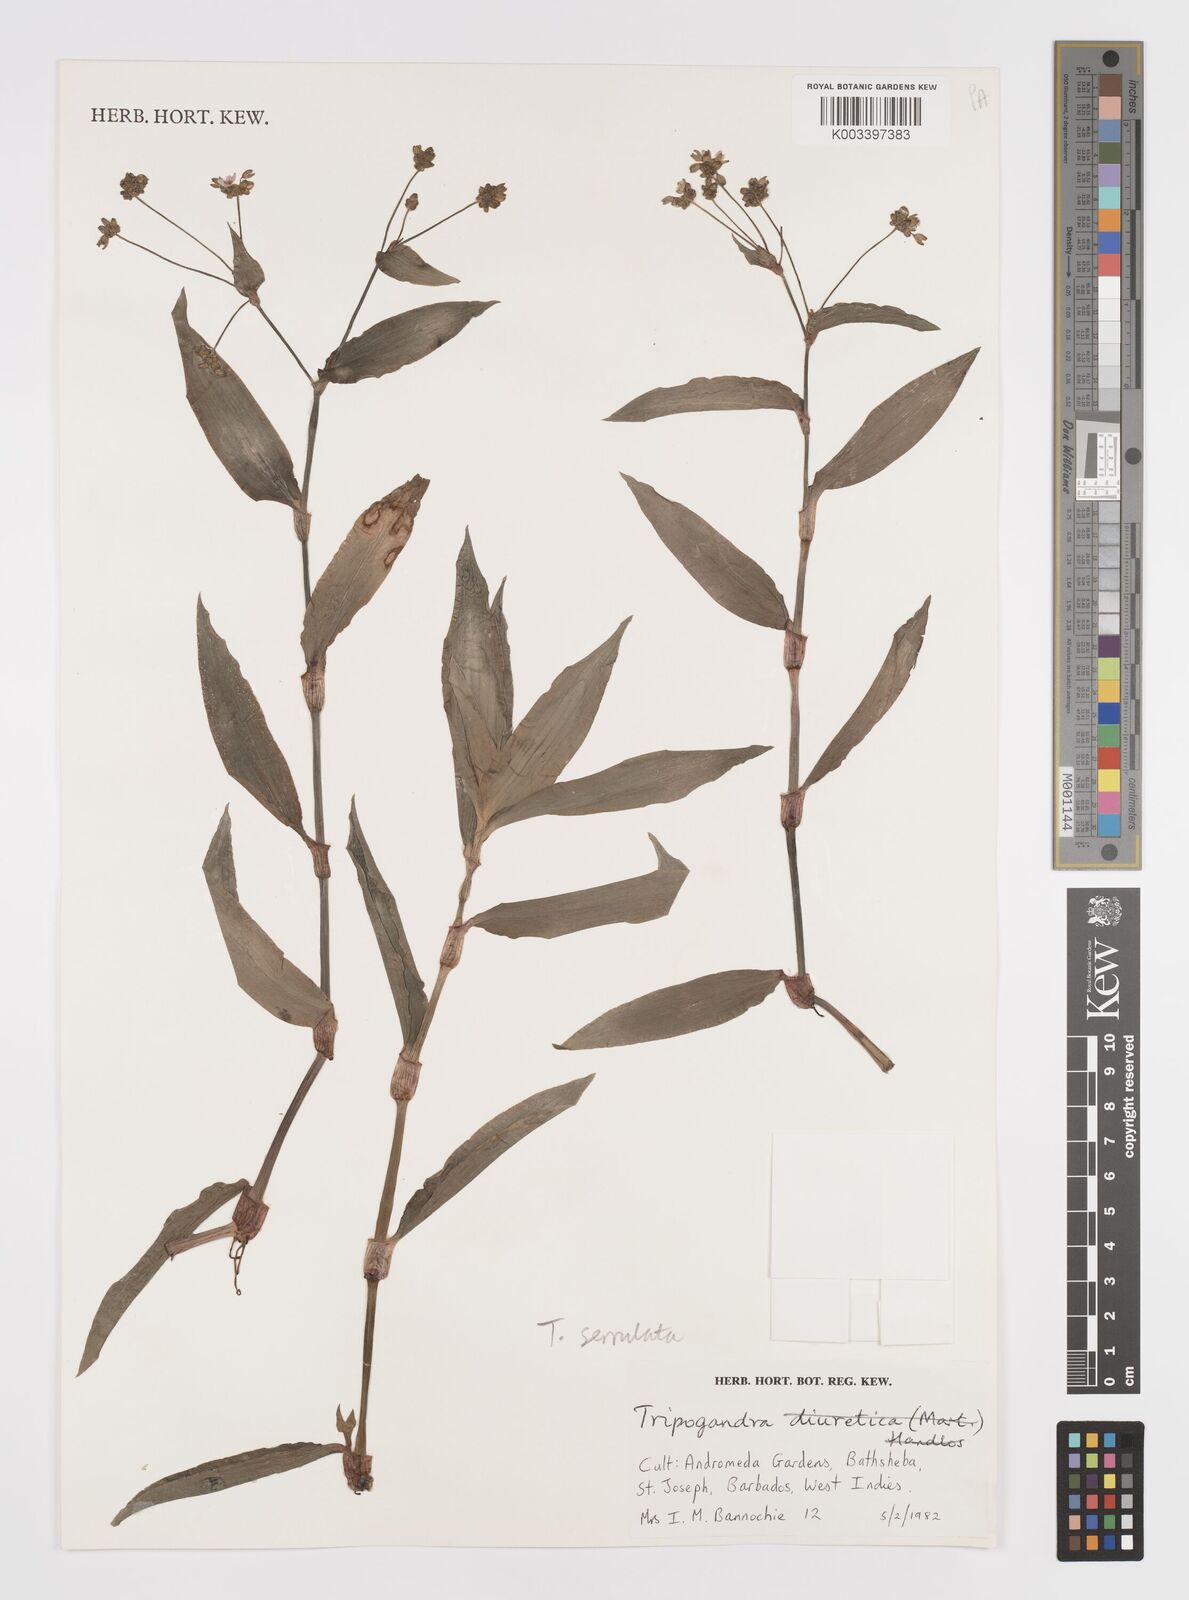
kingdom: Plantae
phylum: Tracheophyta
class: Liliopsida
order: Commelinales
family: Commelinaceae
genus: Callisia
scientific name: Callisia serrulata
